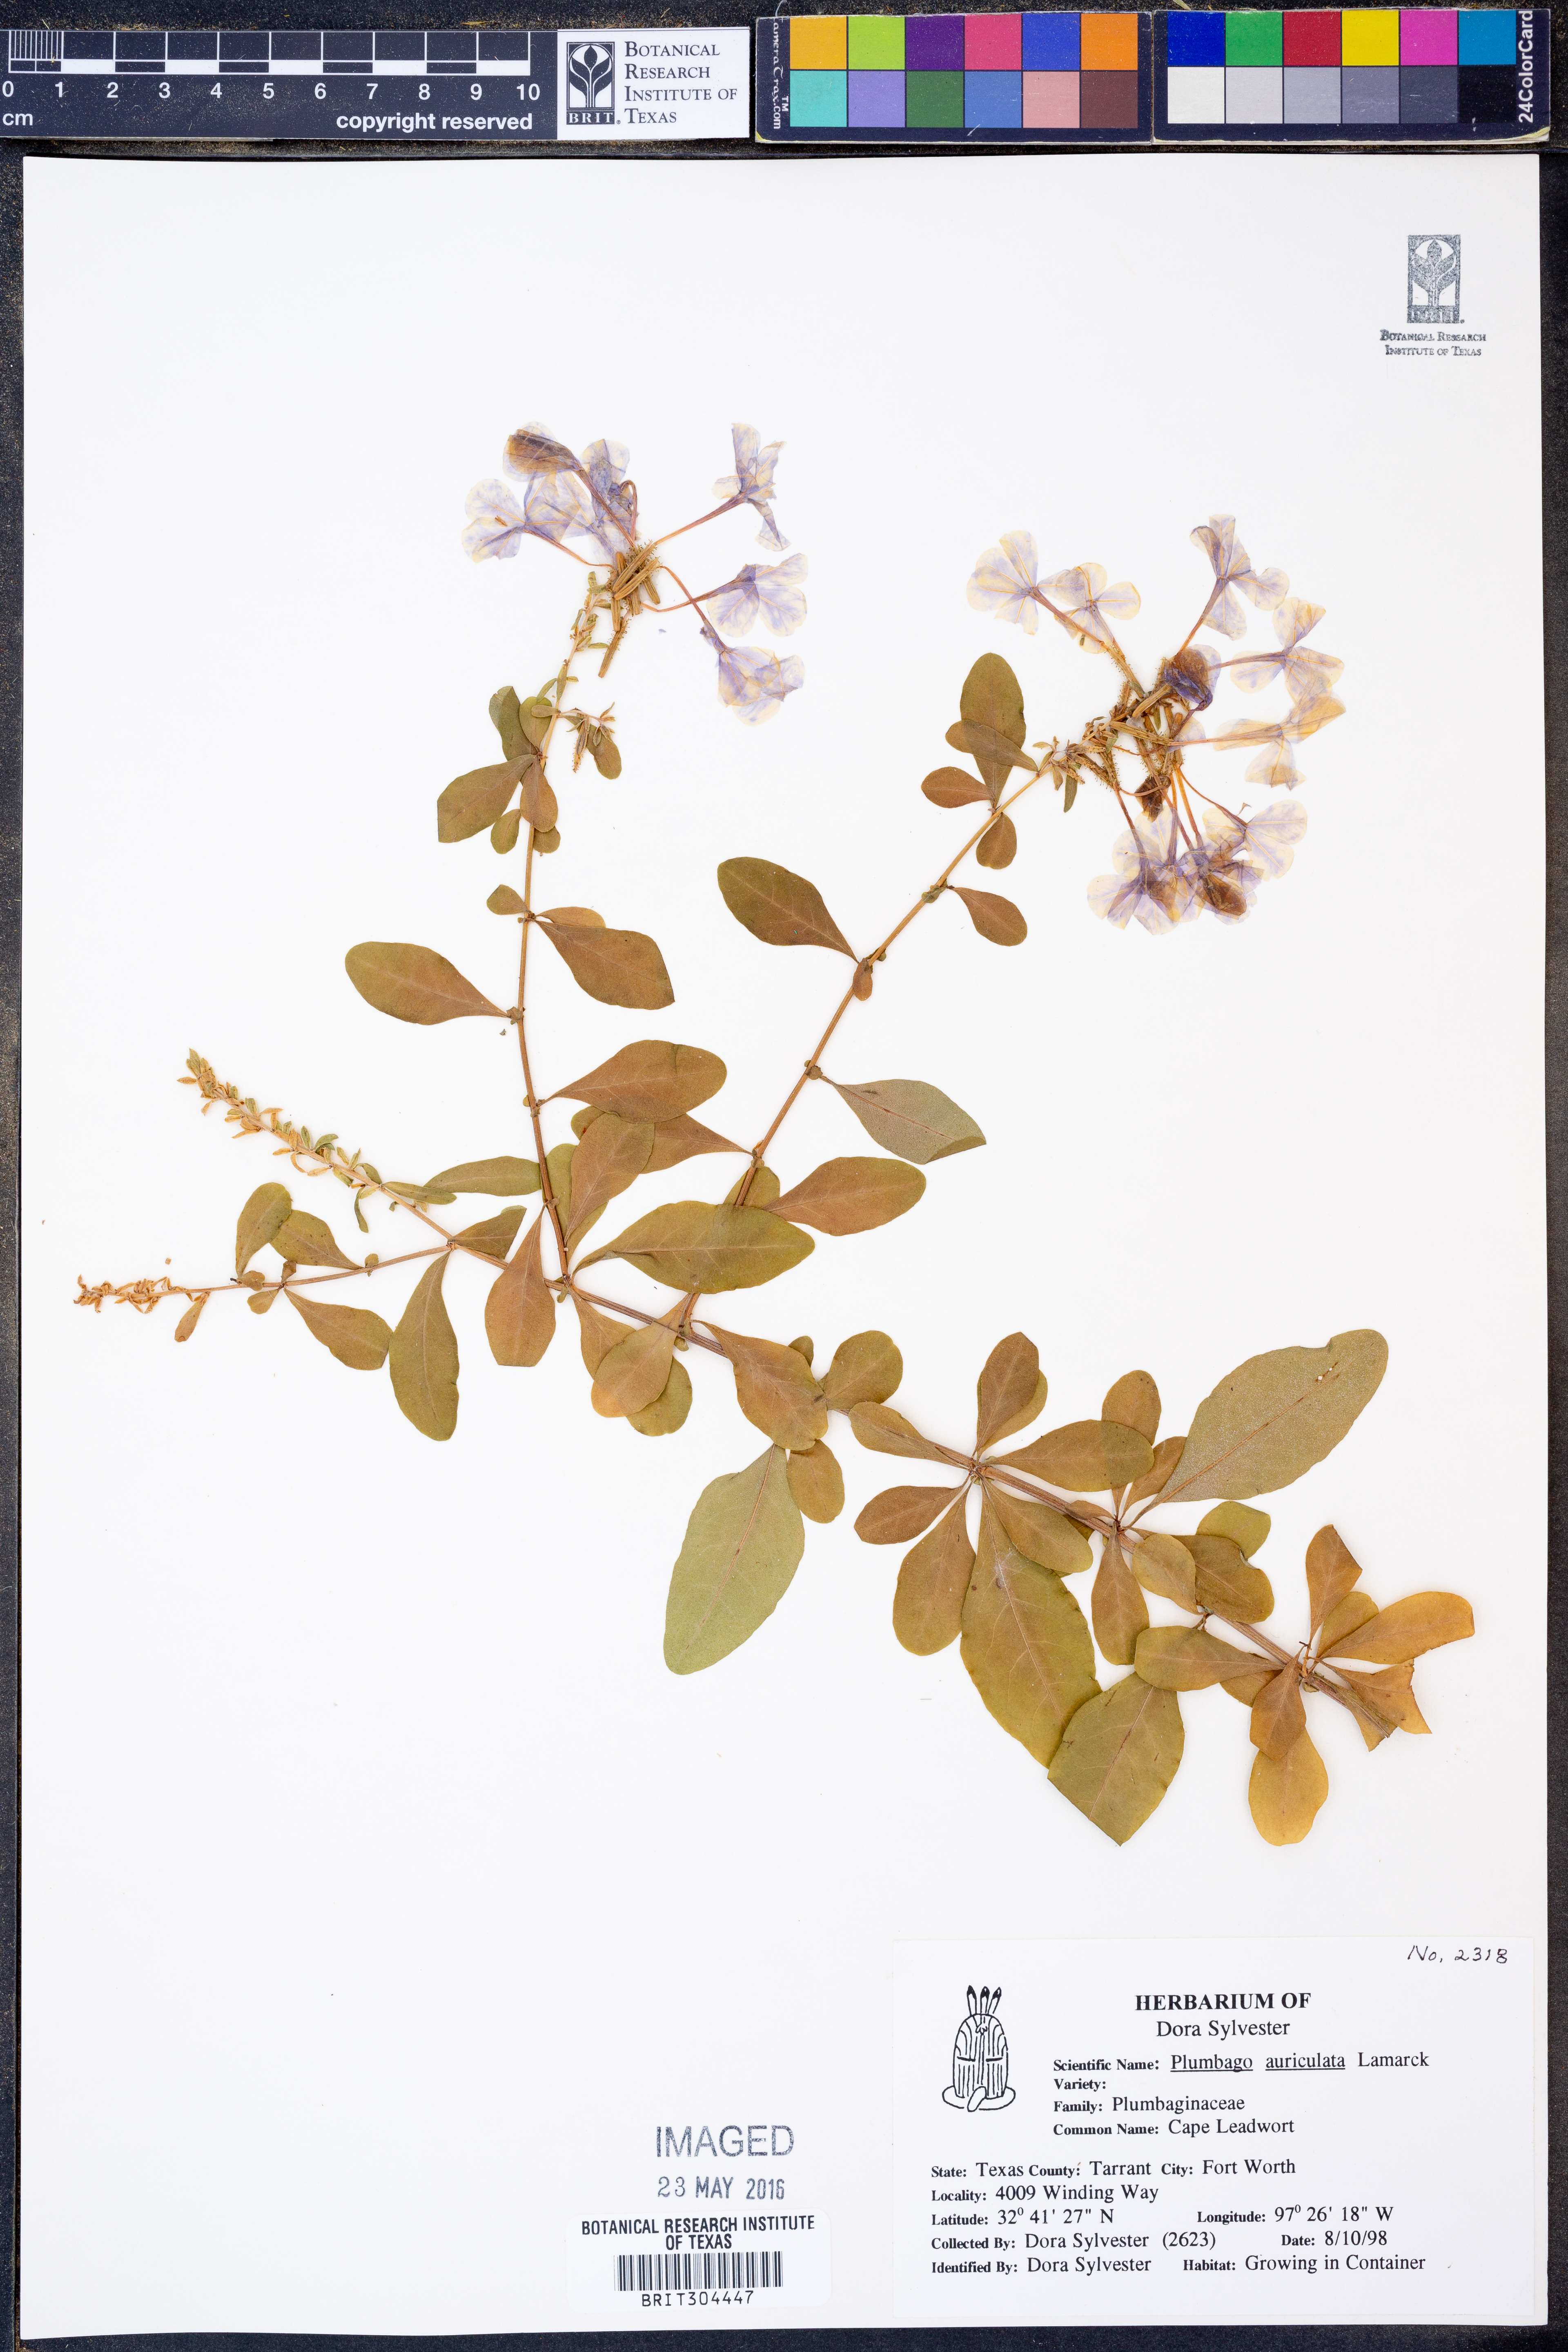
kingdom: Plantae
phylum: Tracheophyta
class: Magnoliopsida
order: Caryophyllales
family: Plumbaginaceae
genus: Plumbago
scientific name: Plumbago auriculata
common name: Cape leadwort
